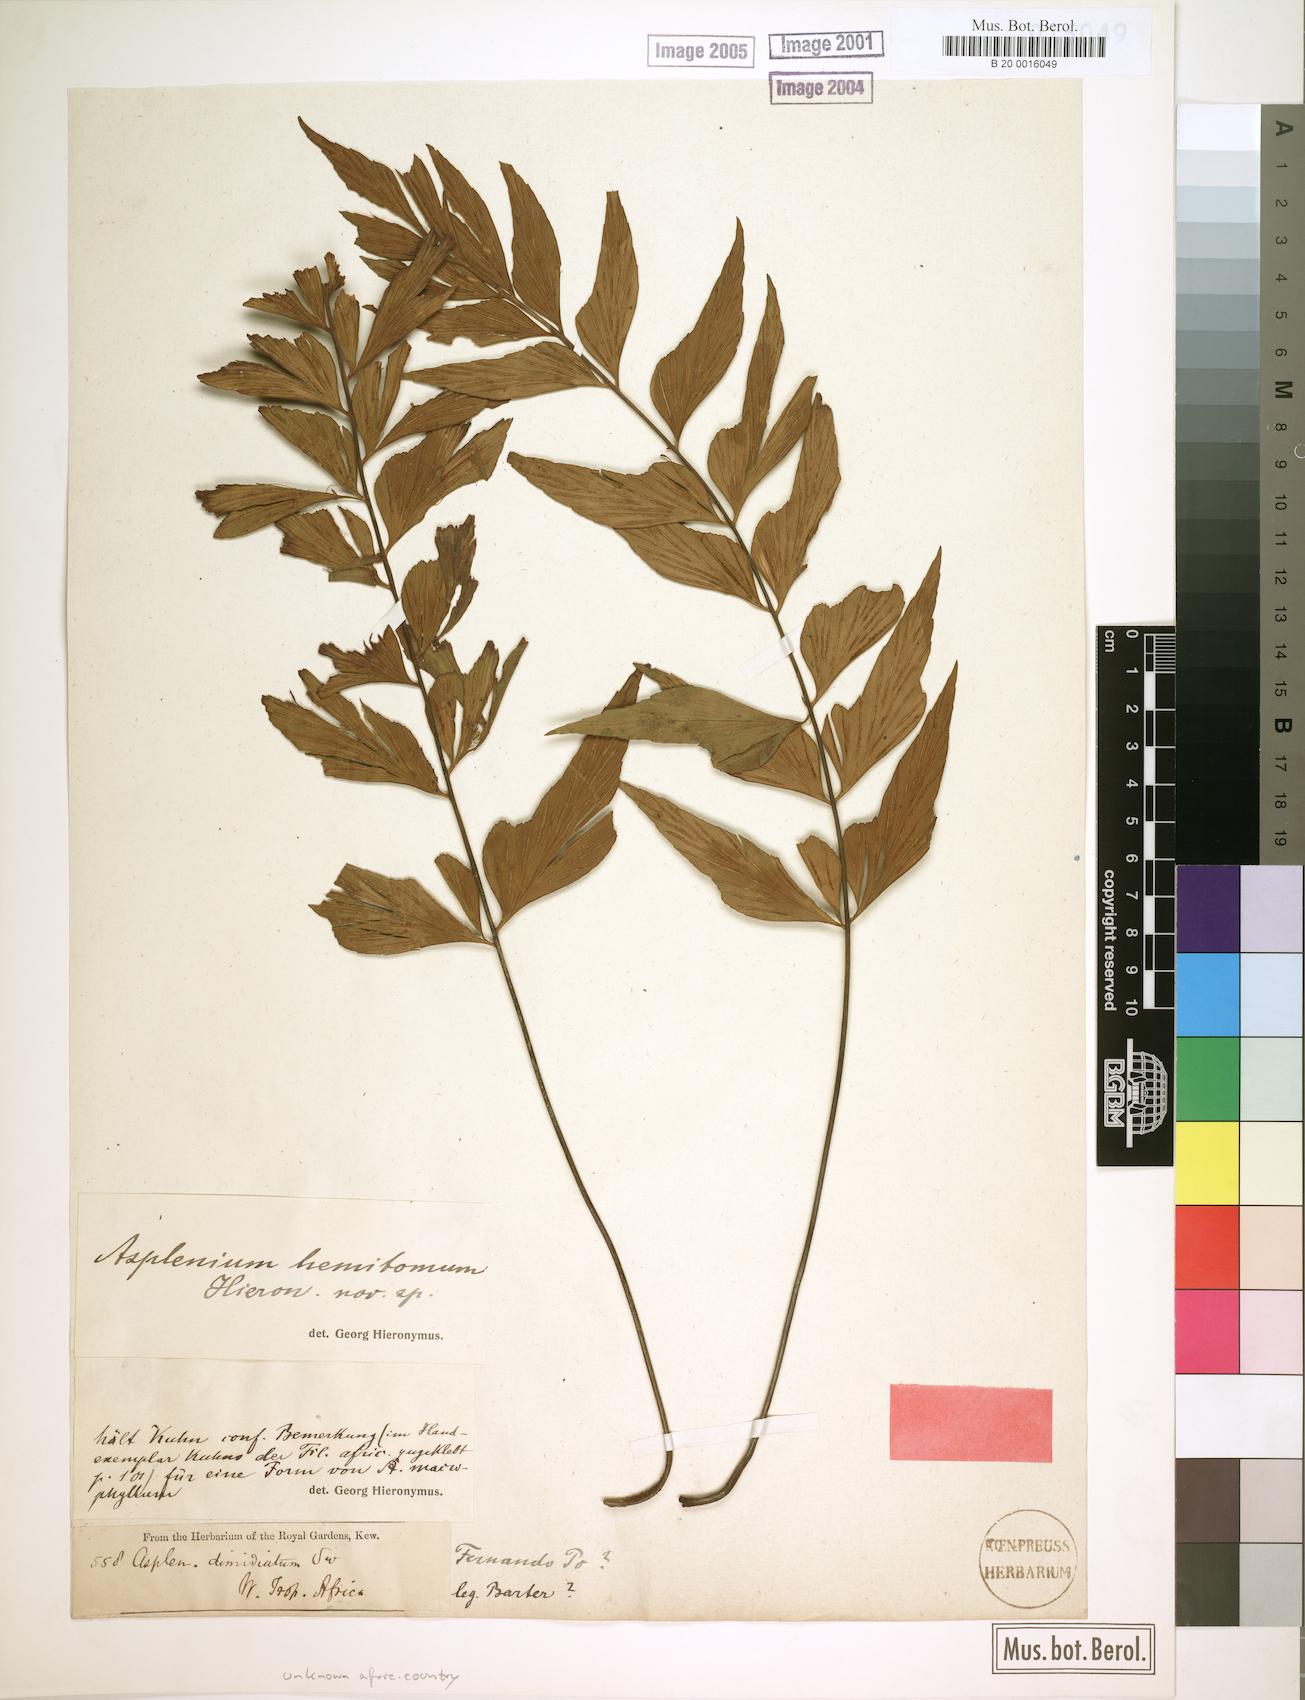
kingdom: Plantae
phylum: Tracheophyta
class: Polypodiopsida
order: Polypodiales
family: Aspleniaceae
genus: Asplenium
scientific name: Asplenium hemitomum
